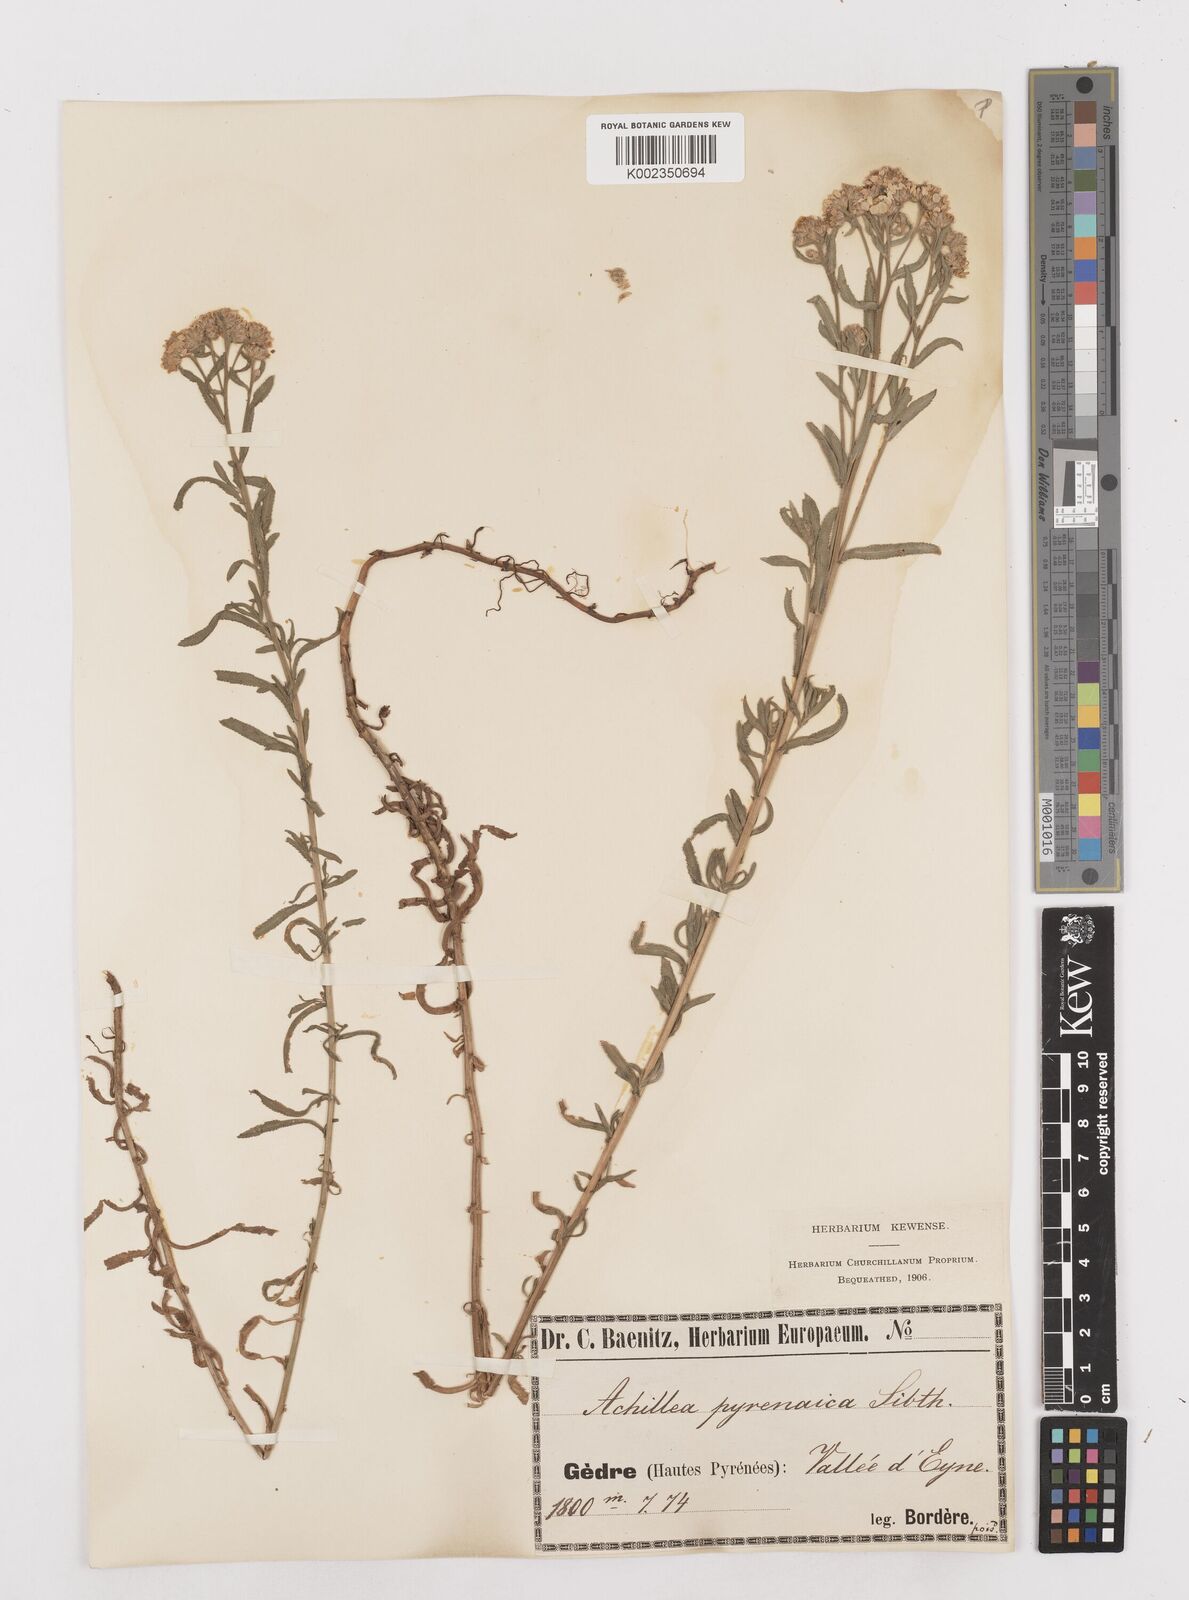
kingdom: Plantae
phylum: Tracheophyta
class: Magnoliopsida
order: Asterales
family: Asteraceae
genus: Achillea
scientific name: Achillea pyrenaica
